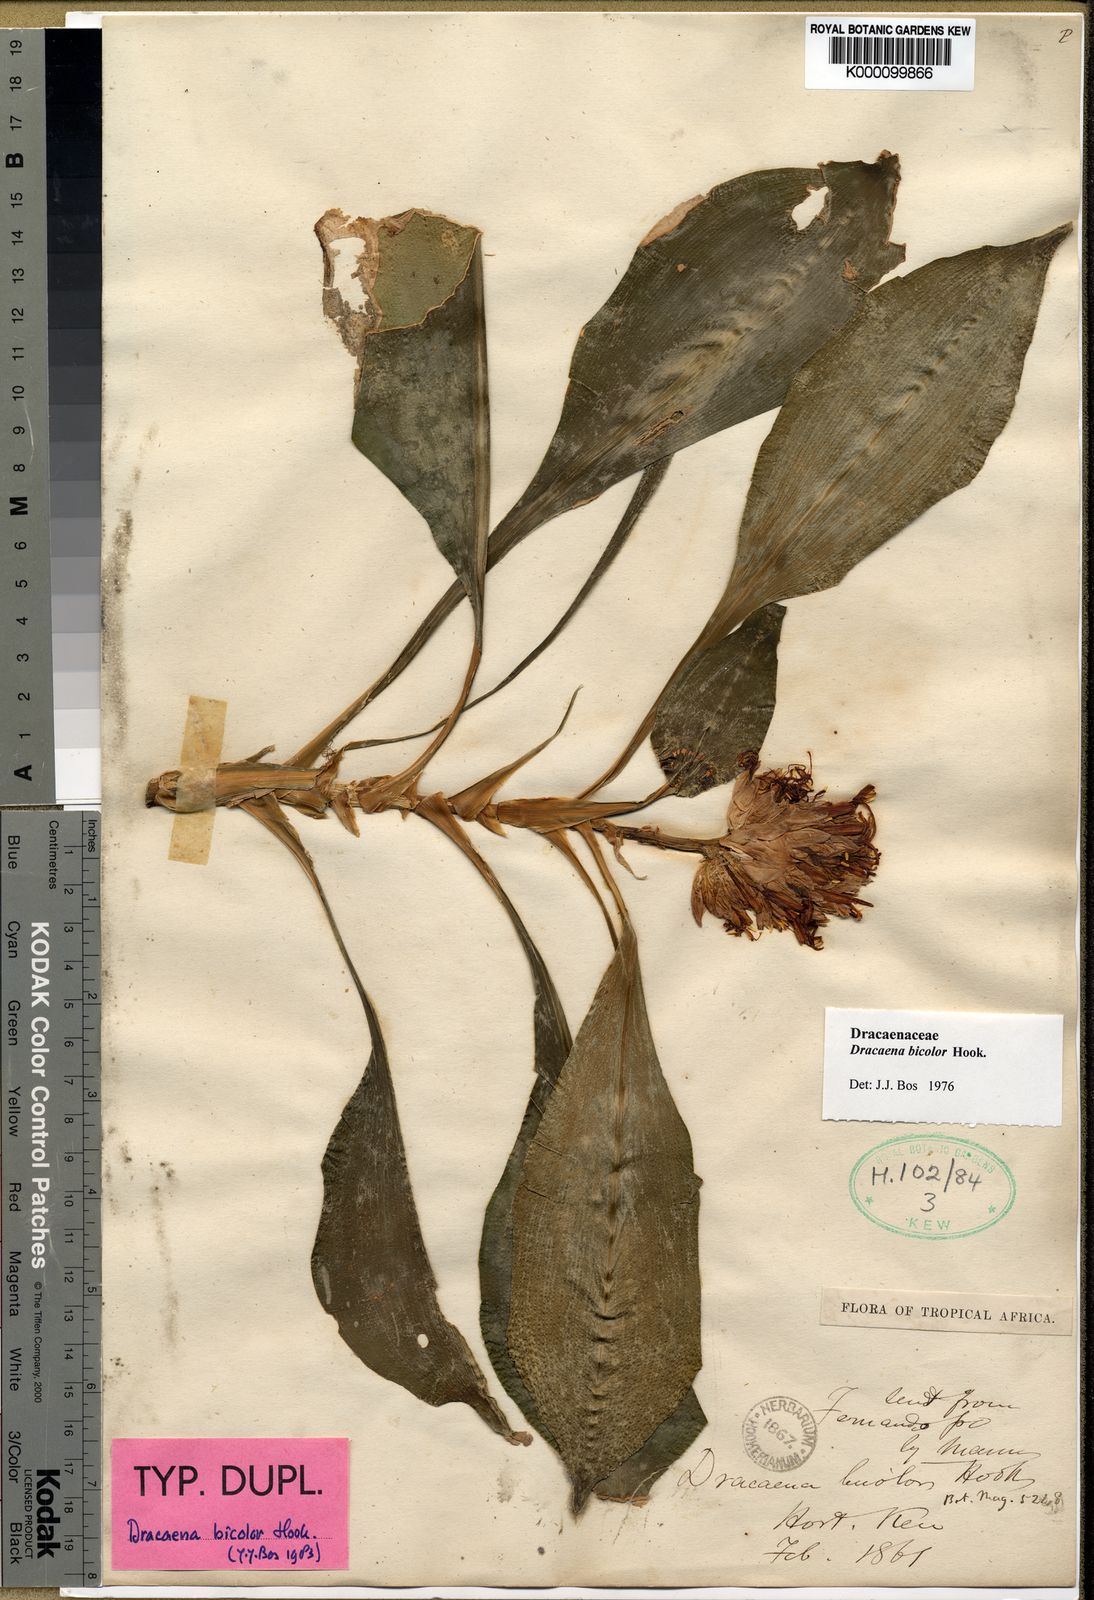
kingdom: Plantae
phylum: Tracheophyta
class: Liliopsida
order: Asparagales
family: Asparagaceae
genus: Dracaena
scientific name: Dracaena bicolor
